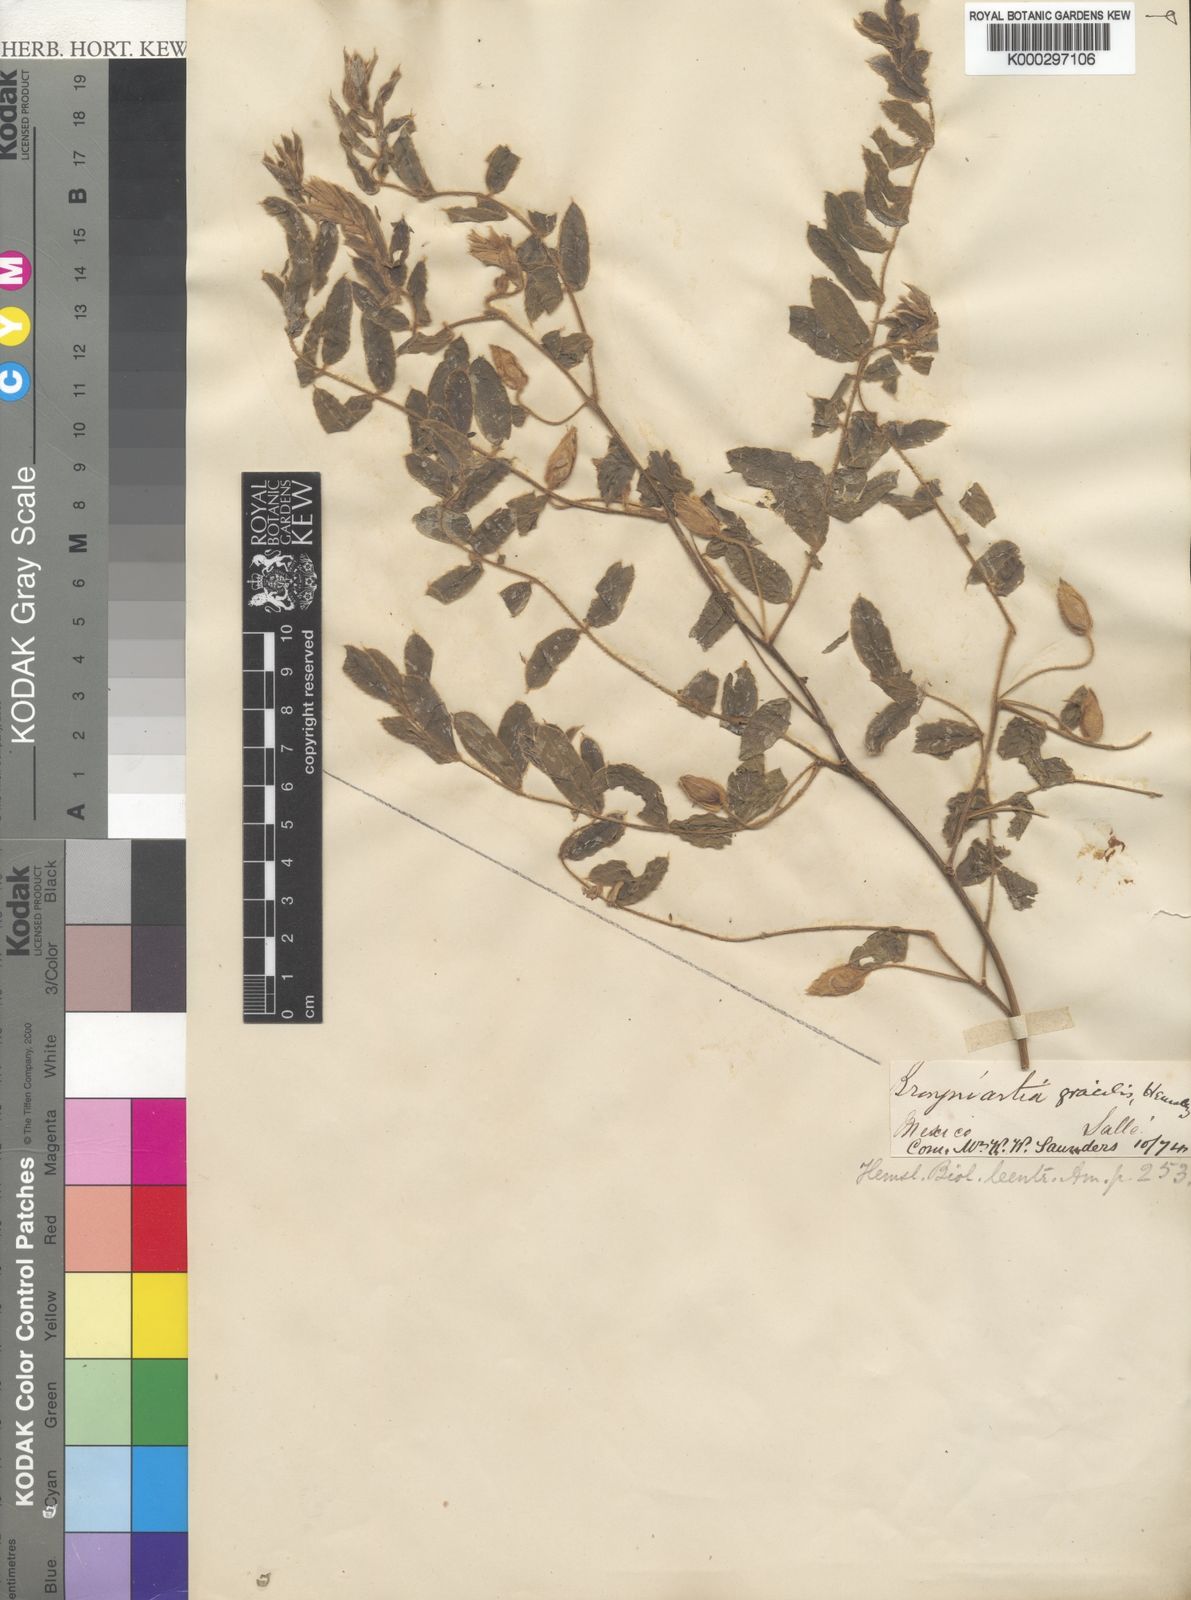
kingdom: Plantae
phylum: Tracheophyta
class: Magnoliopsida
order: Fabales
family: Fabaceae
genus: Brongniartia
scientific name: Brongniartia sericea
